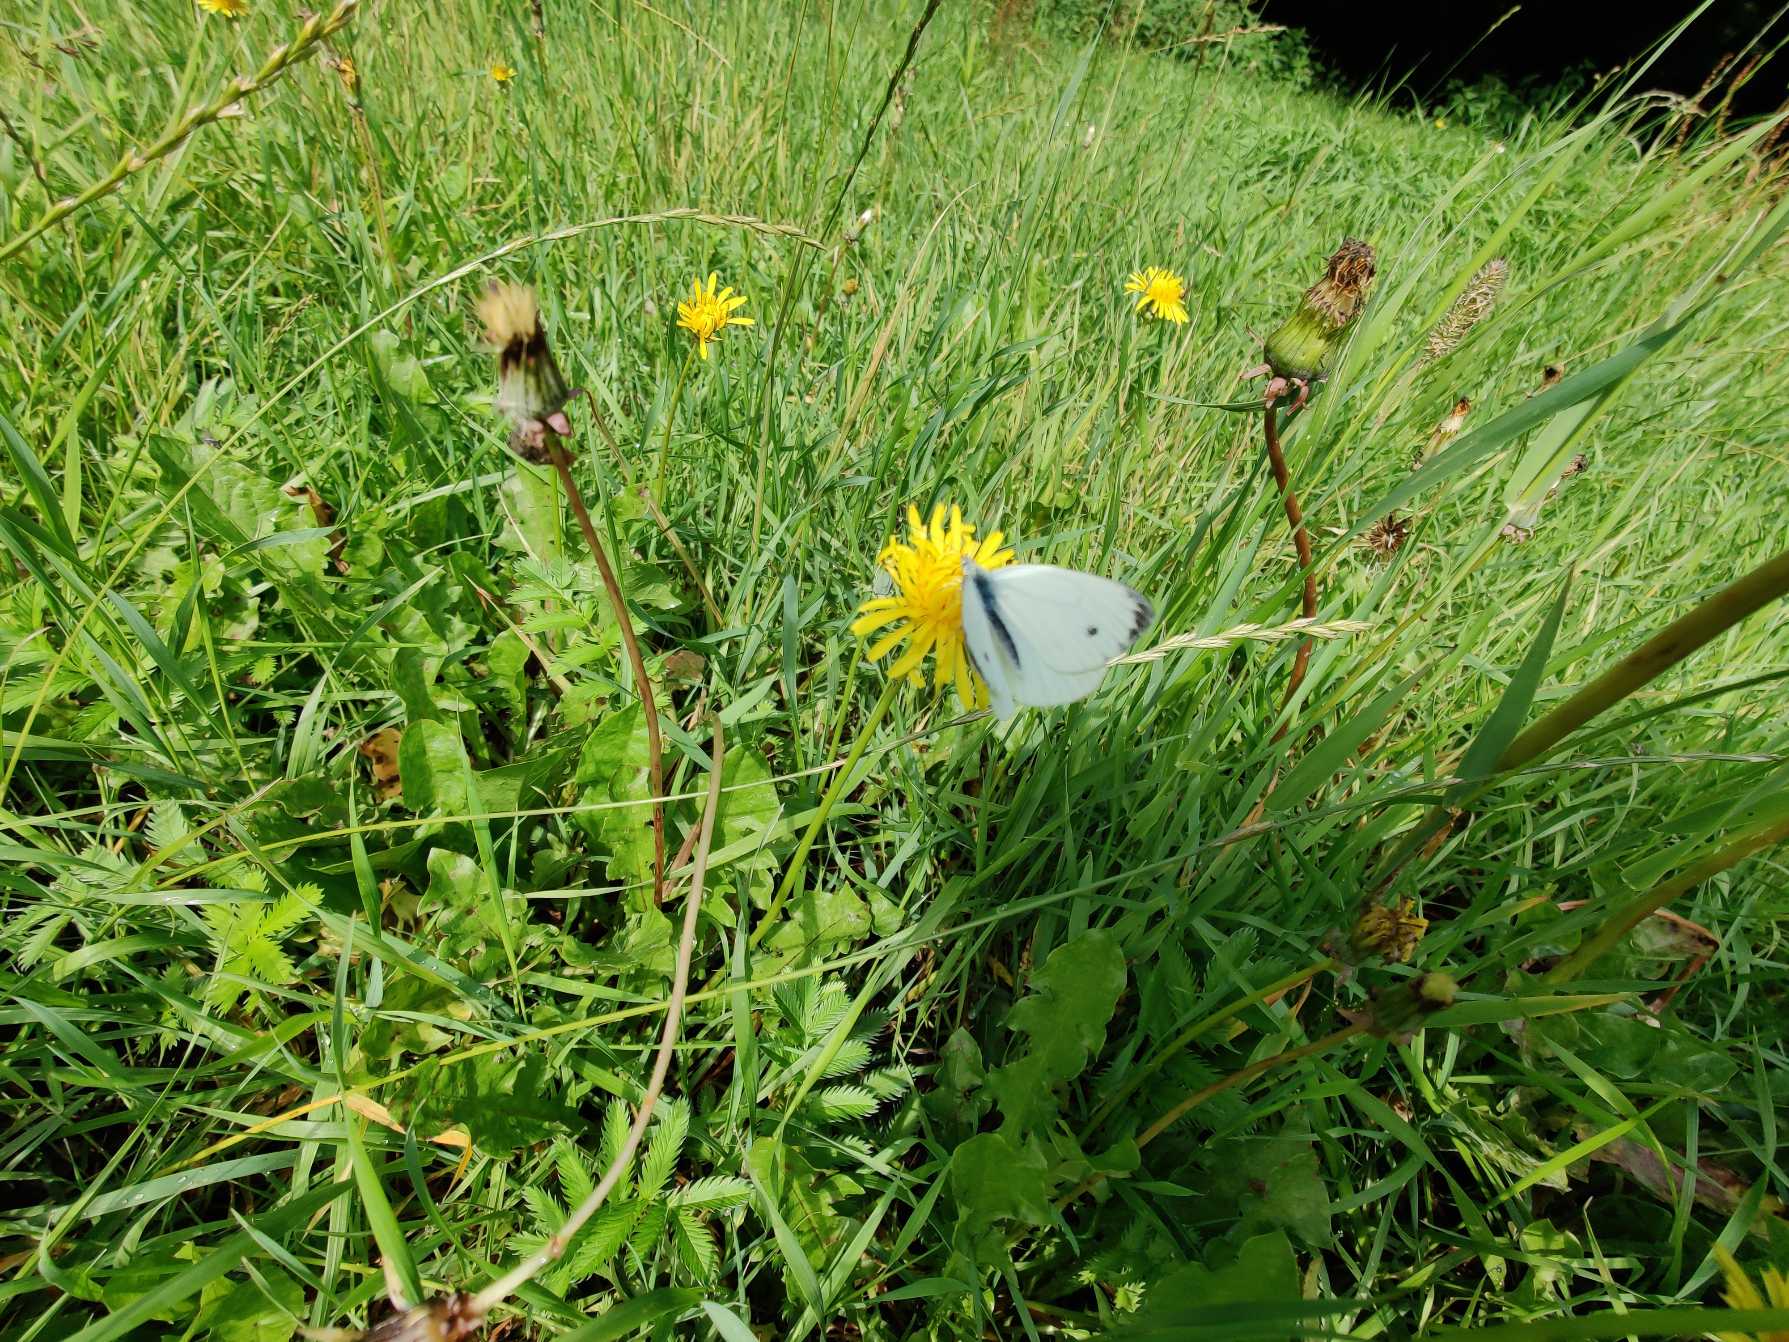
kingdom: Animalia
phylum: Arthropoda
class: Insecta
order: Lepidoptera
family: Pieridae
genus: Pieris
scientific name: Pieris napi
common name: Grønåret kålsommerfugl
